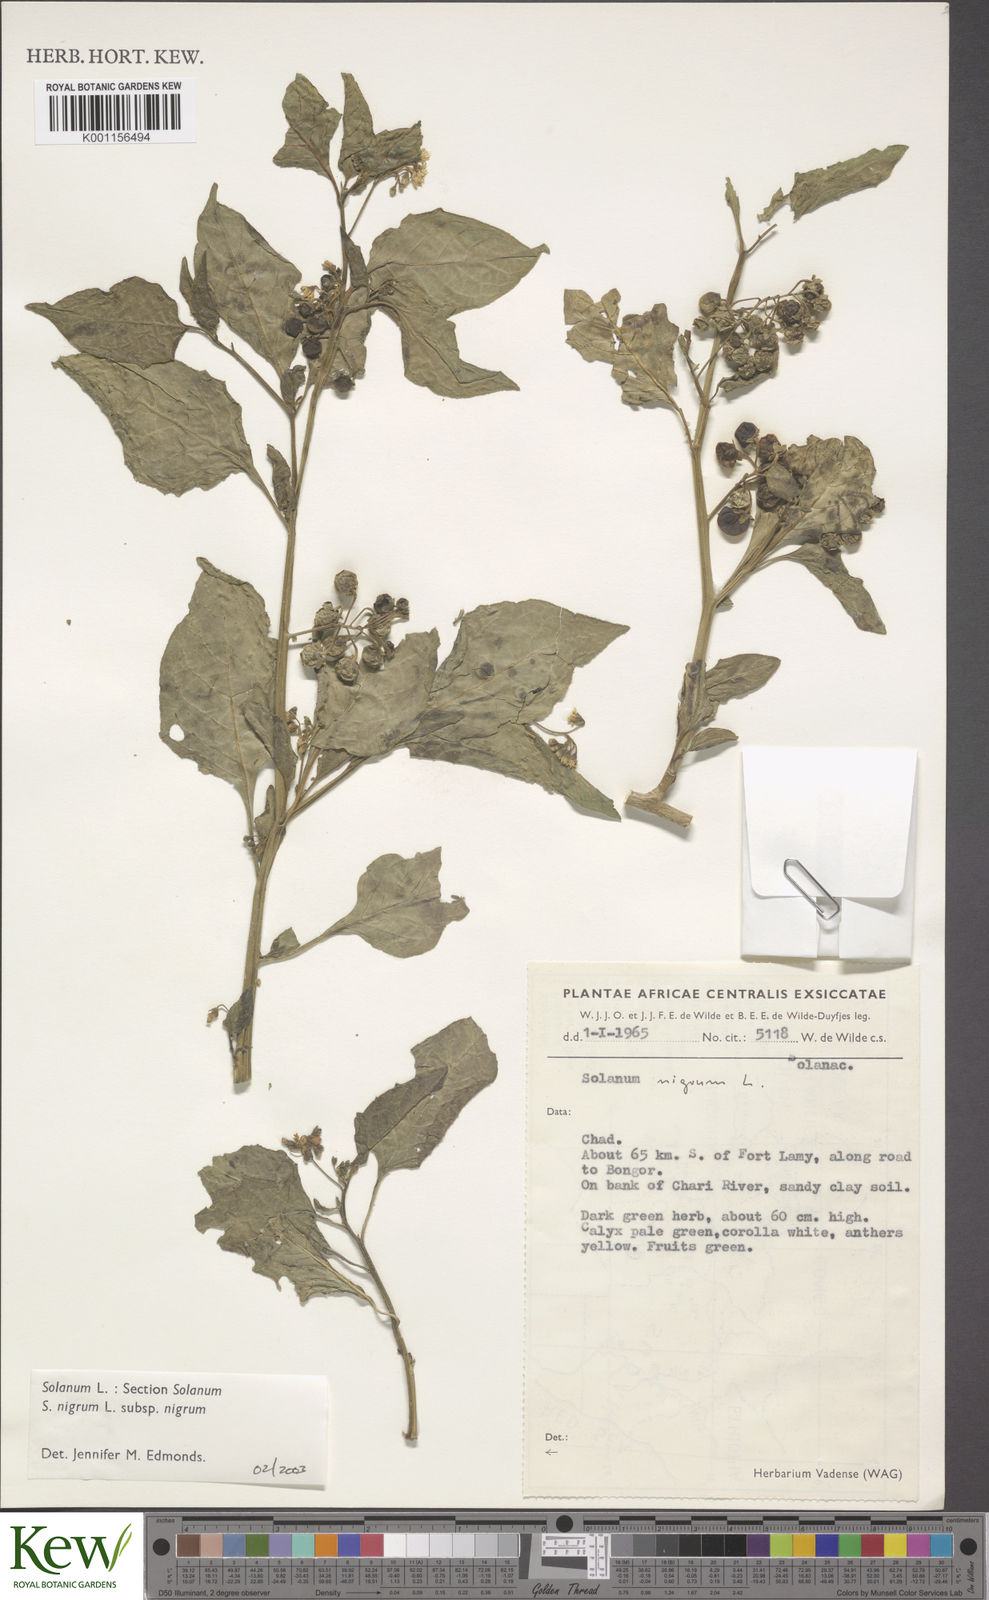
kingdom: Plantae
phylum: Tracheophyta
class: Magnoliopsida
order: Solanales
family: Solanaceae
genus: Solanum
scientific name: Solanum tarderemotum
